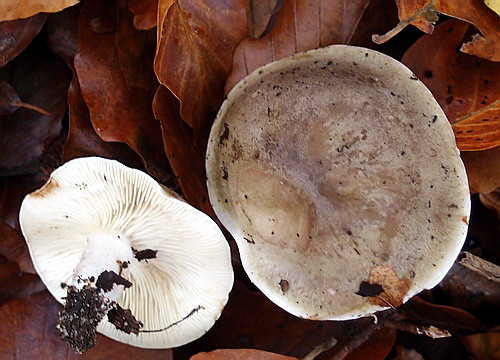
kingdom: Fungi
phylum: Basidiomycota
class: Agaricomycetes
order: Russulales
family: Russulaceae
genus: Lactarius
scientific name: Lactarius fluens
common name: lysrandet mælkehat
